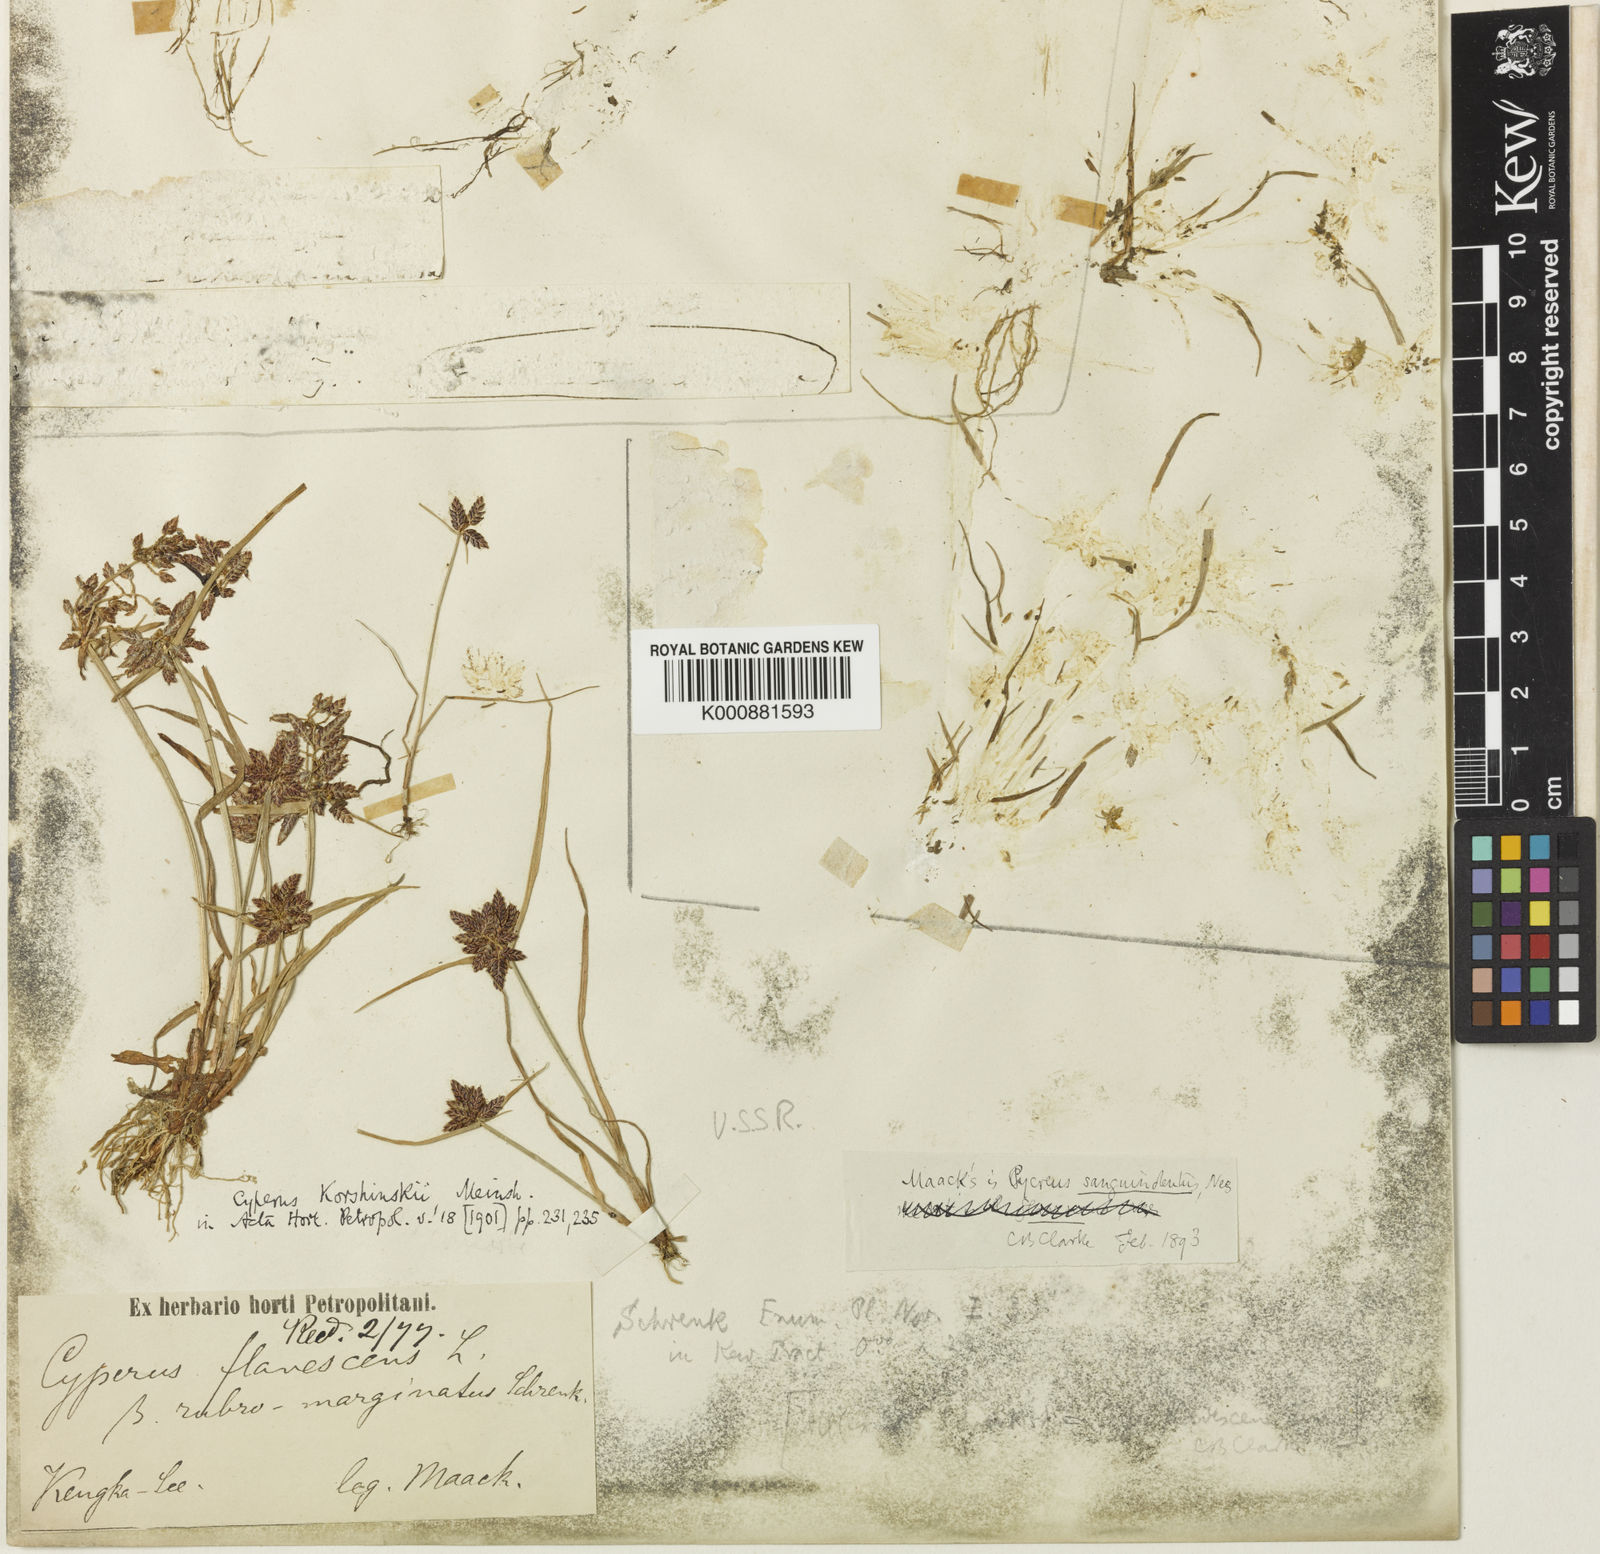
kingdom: Plantae
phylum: Tracheophyta
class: Liliopsida
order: Poales
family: Cyperaceae
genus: Cyperus
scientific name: Cyperus sanguinolentus
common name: Purpleglume flatsedge
